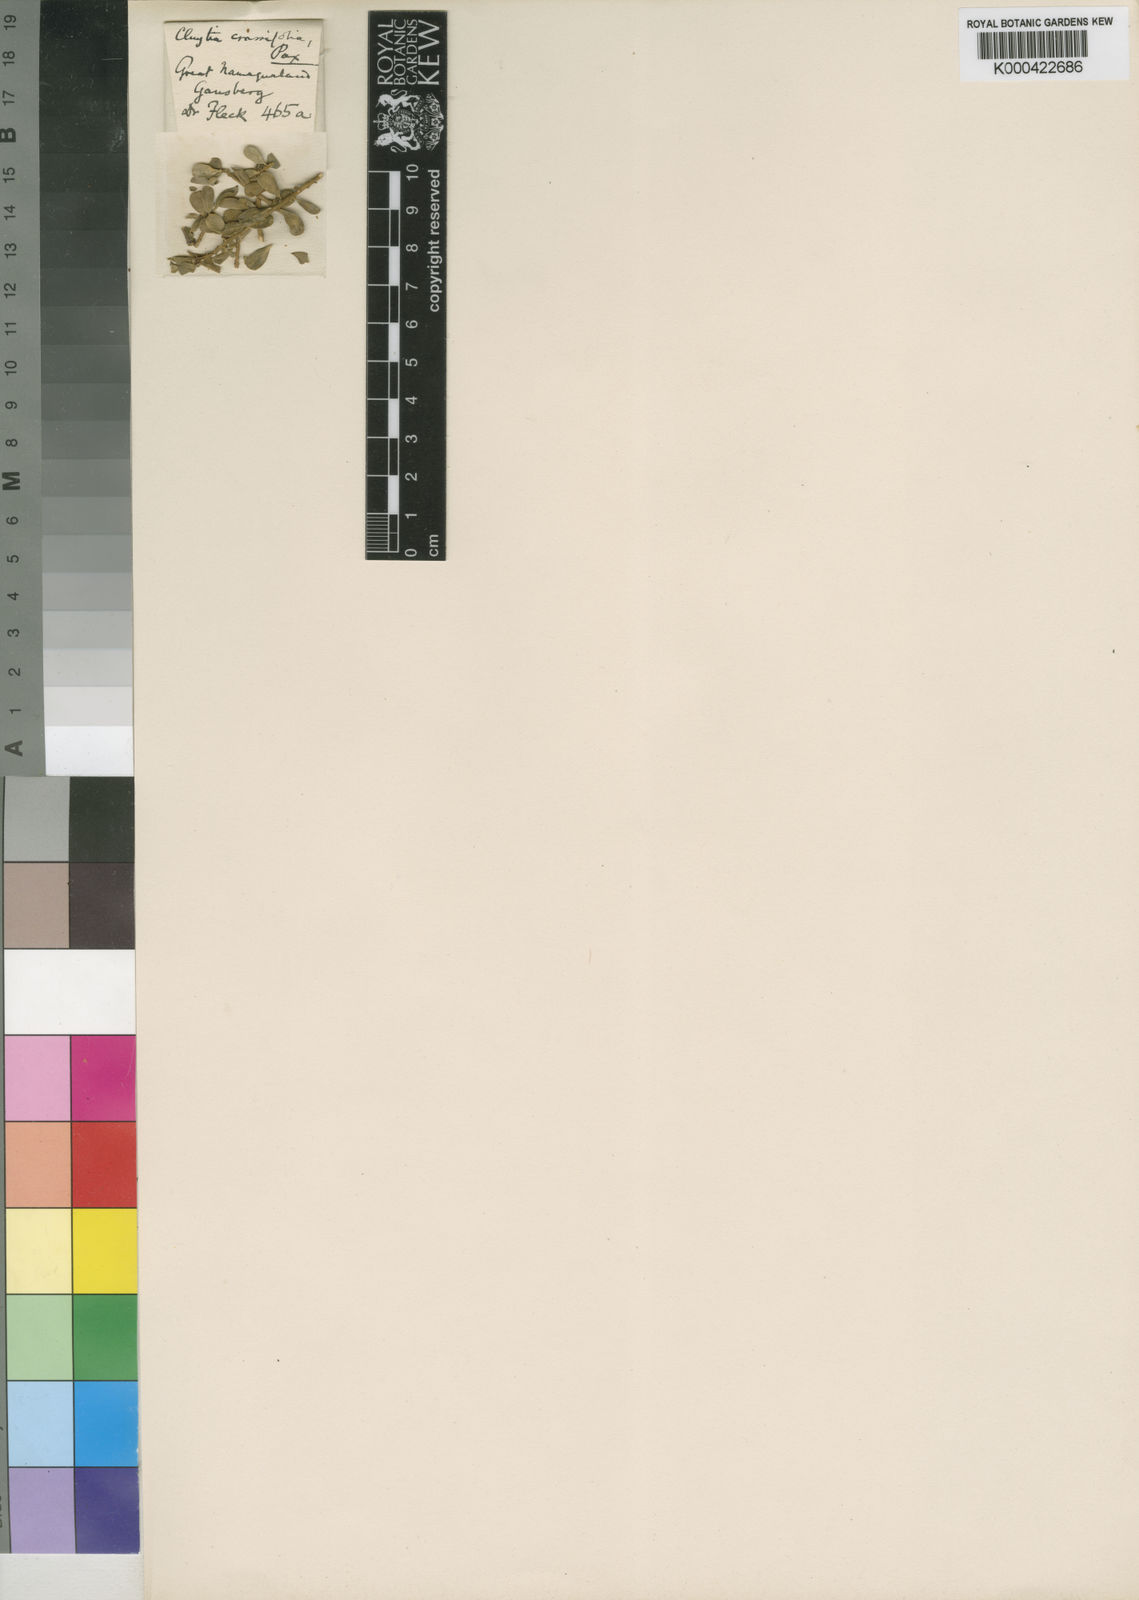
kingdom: Plantae
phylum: Tracheophyta
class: Magnoliopsida
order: Malpighiales
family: Peraceae
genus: Clutia
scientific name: Clutia thunbergii
